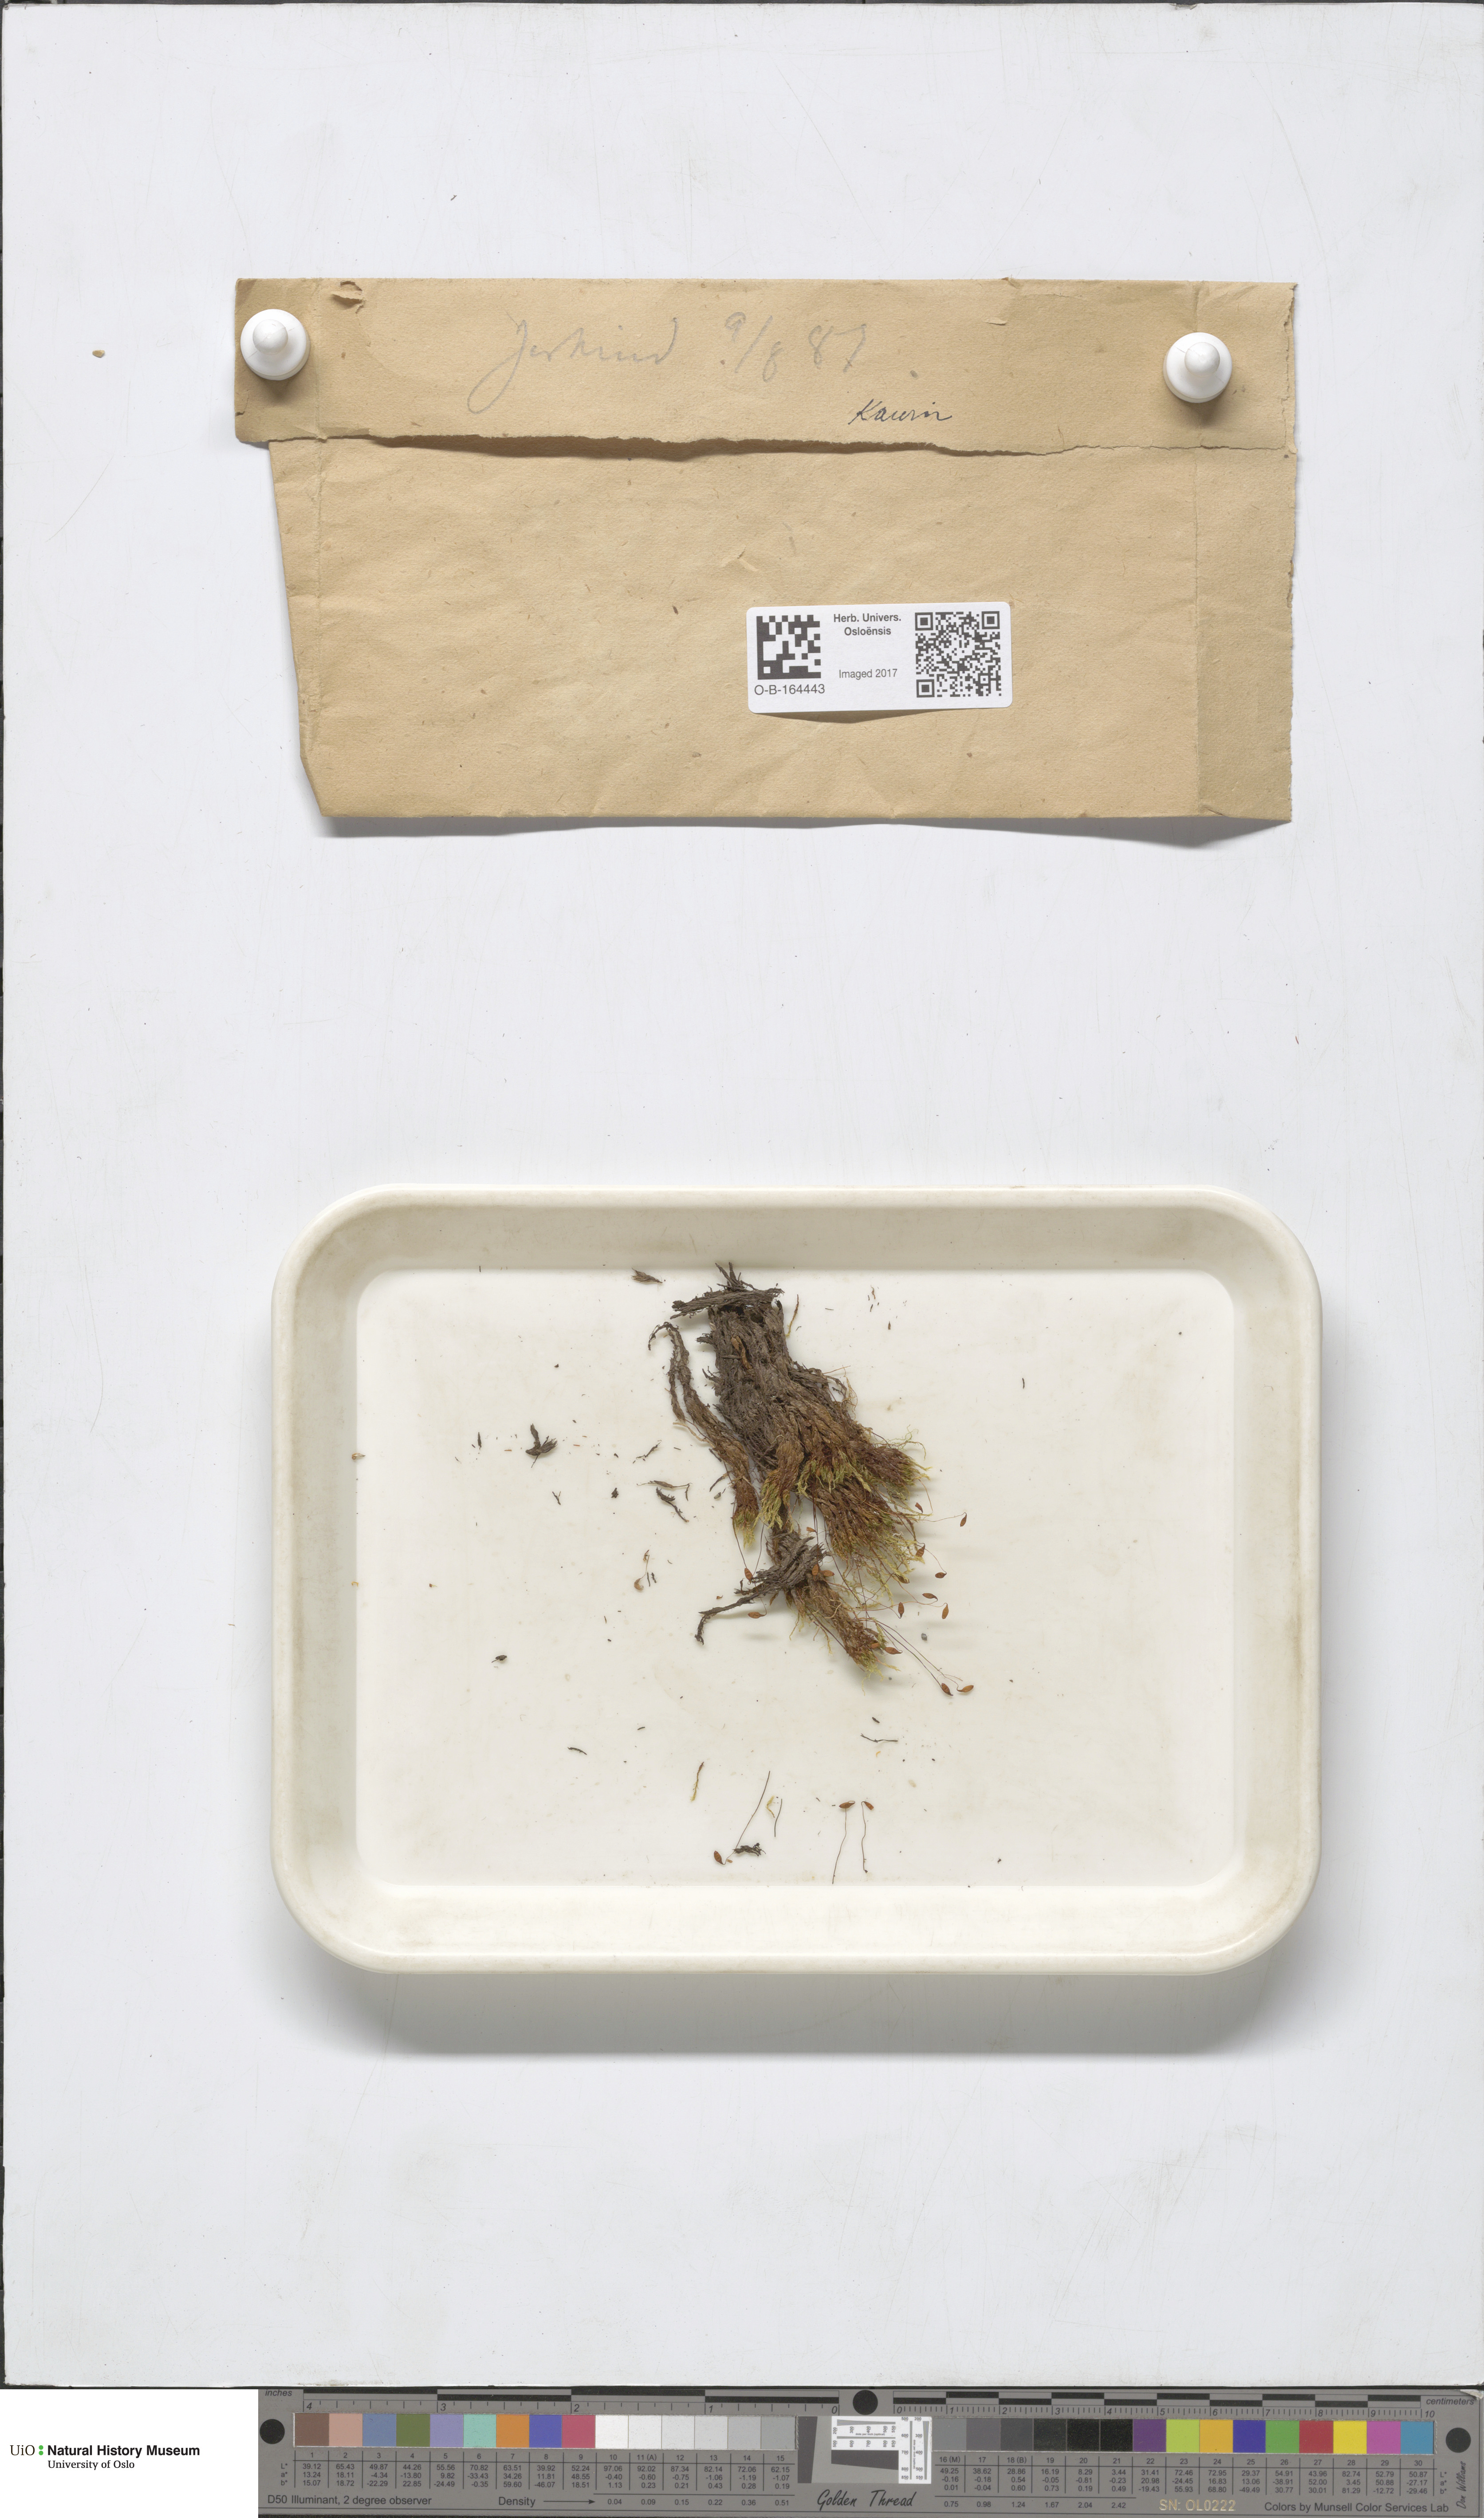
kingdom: Plantae
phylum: Bryophyta
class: Bryopsida
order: Dicranales
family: Dicranaceae
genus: Dicranum
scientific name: Dicranum
